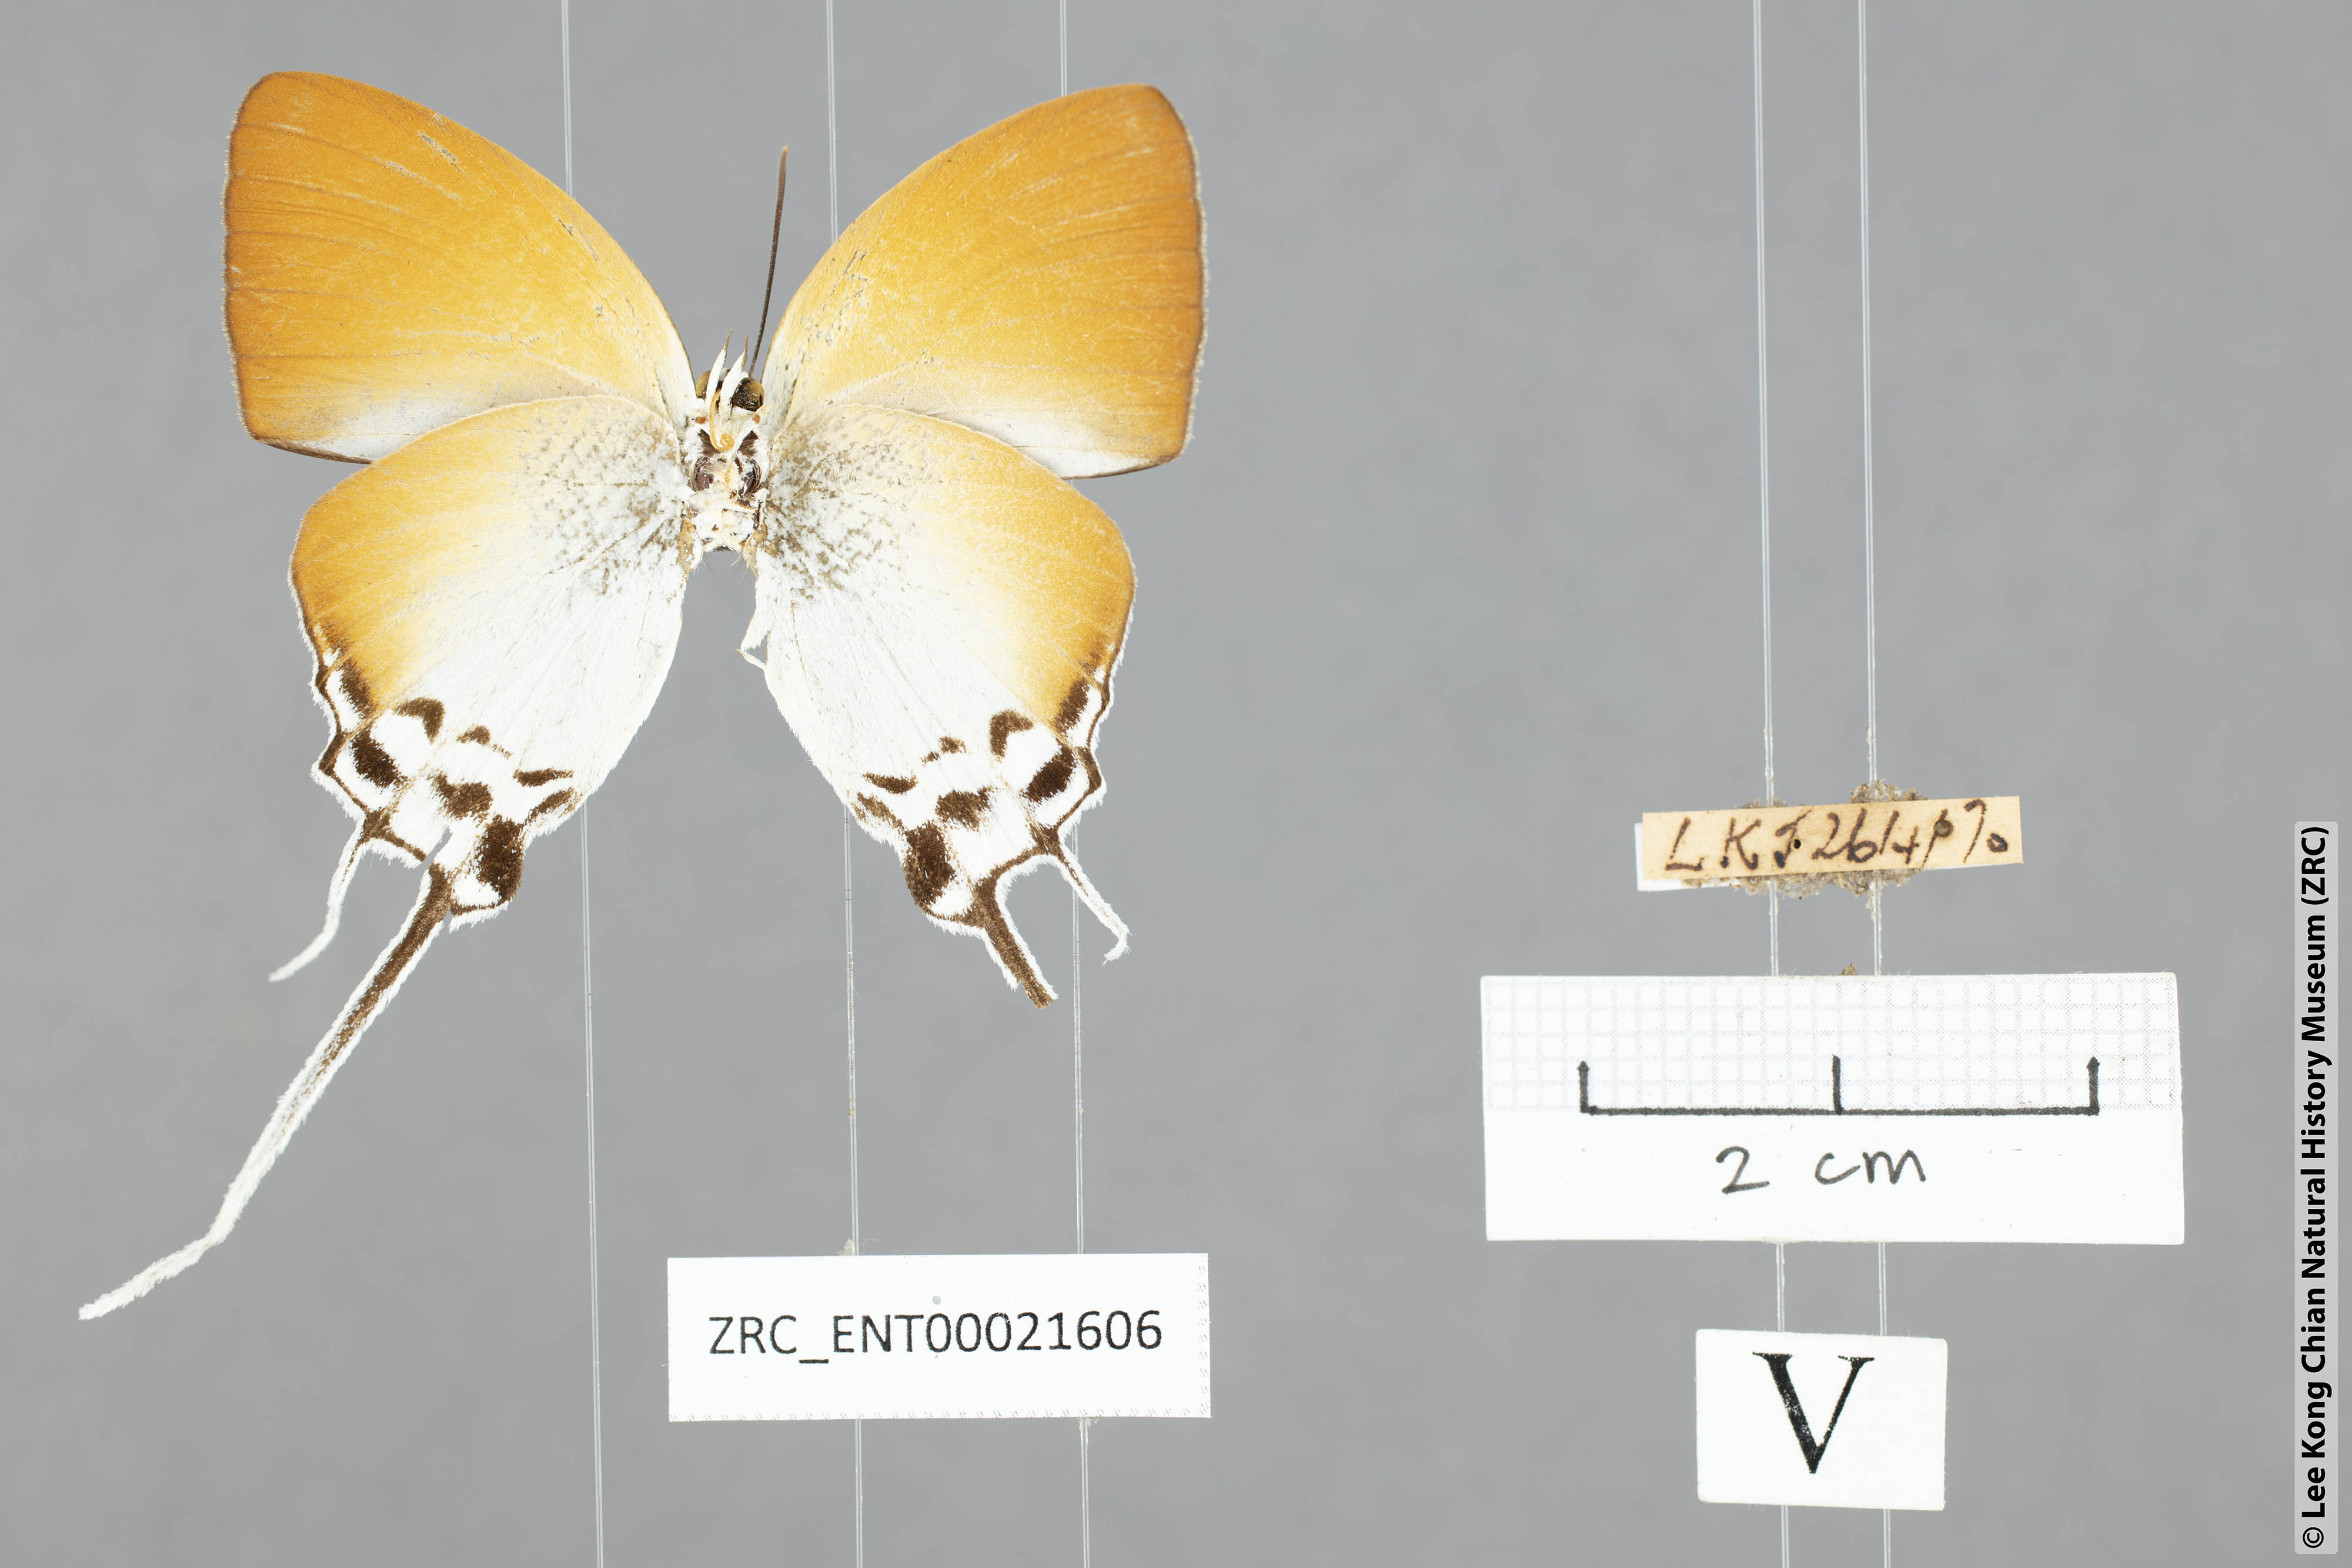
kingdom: Animalia
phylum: Arthropoda
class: Insecta
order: Lepidoptera
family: Lycaenidae
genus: Neocheritra
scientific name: Neocheritra amrita
